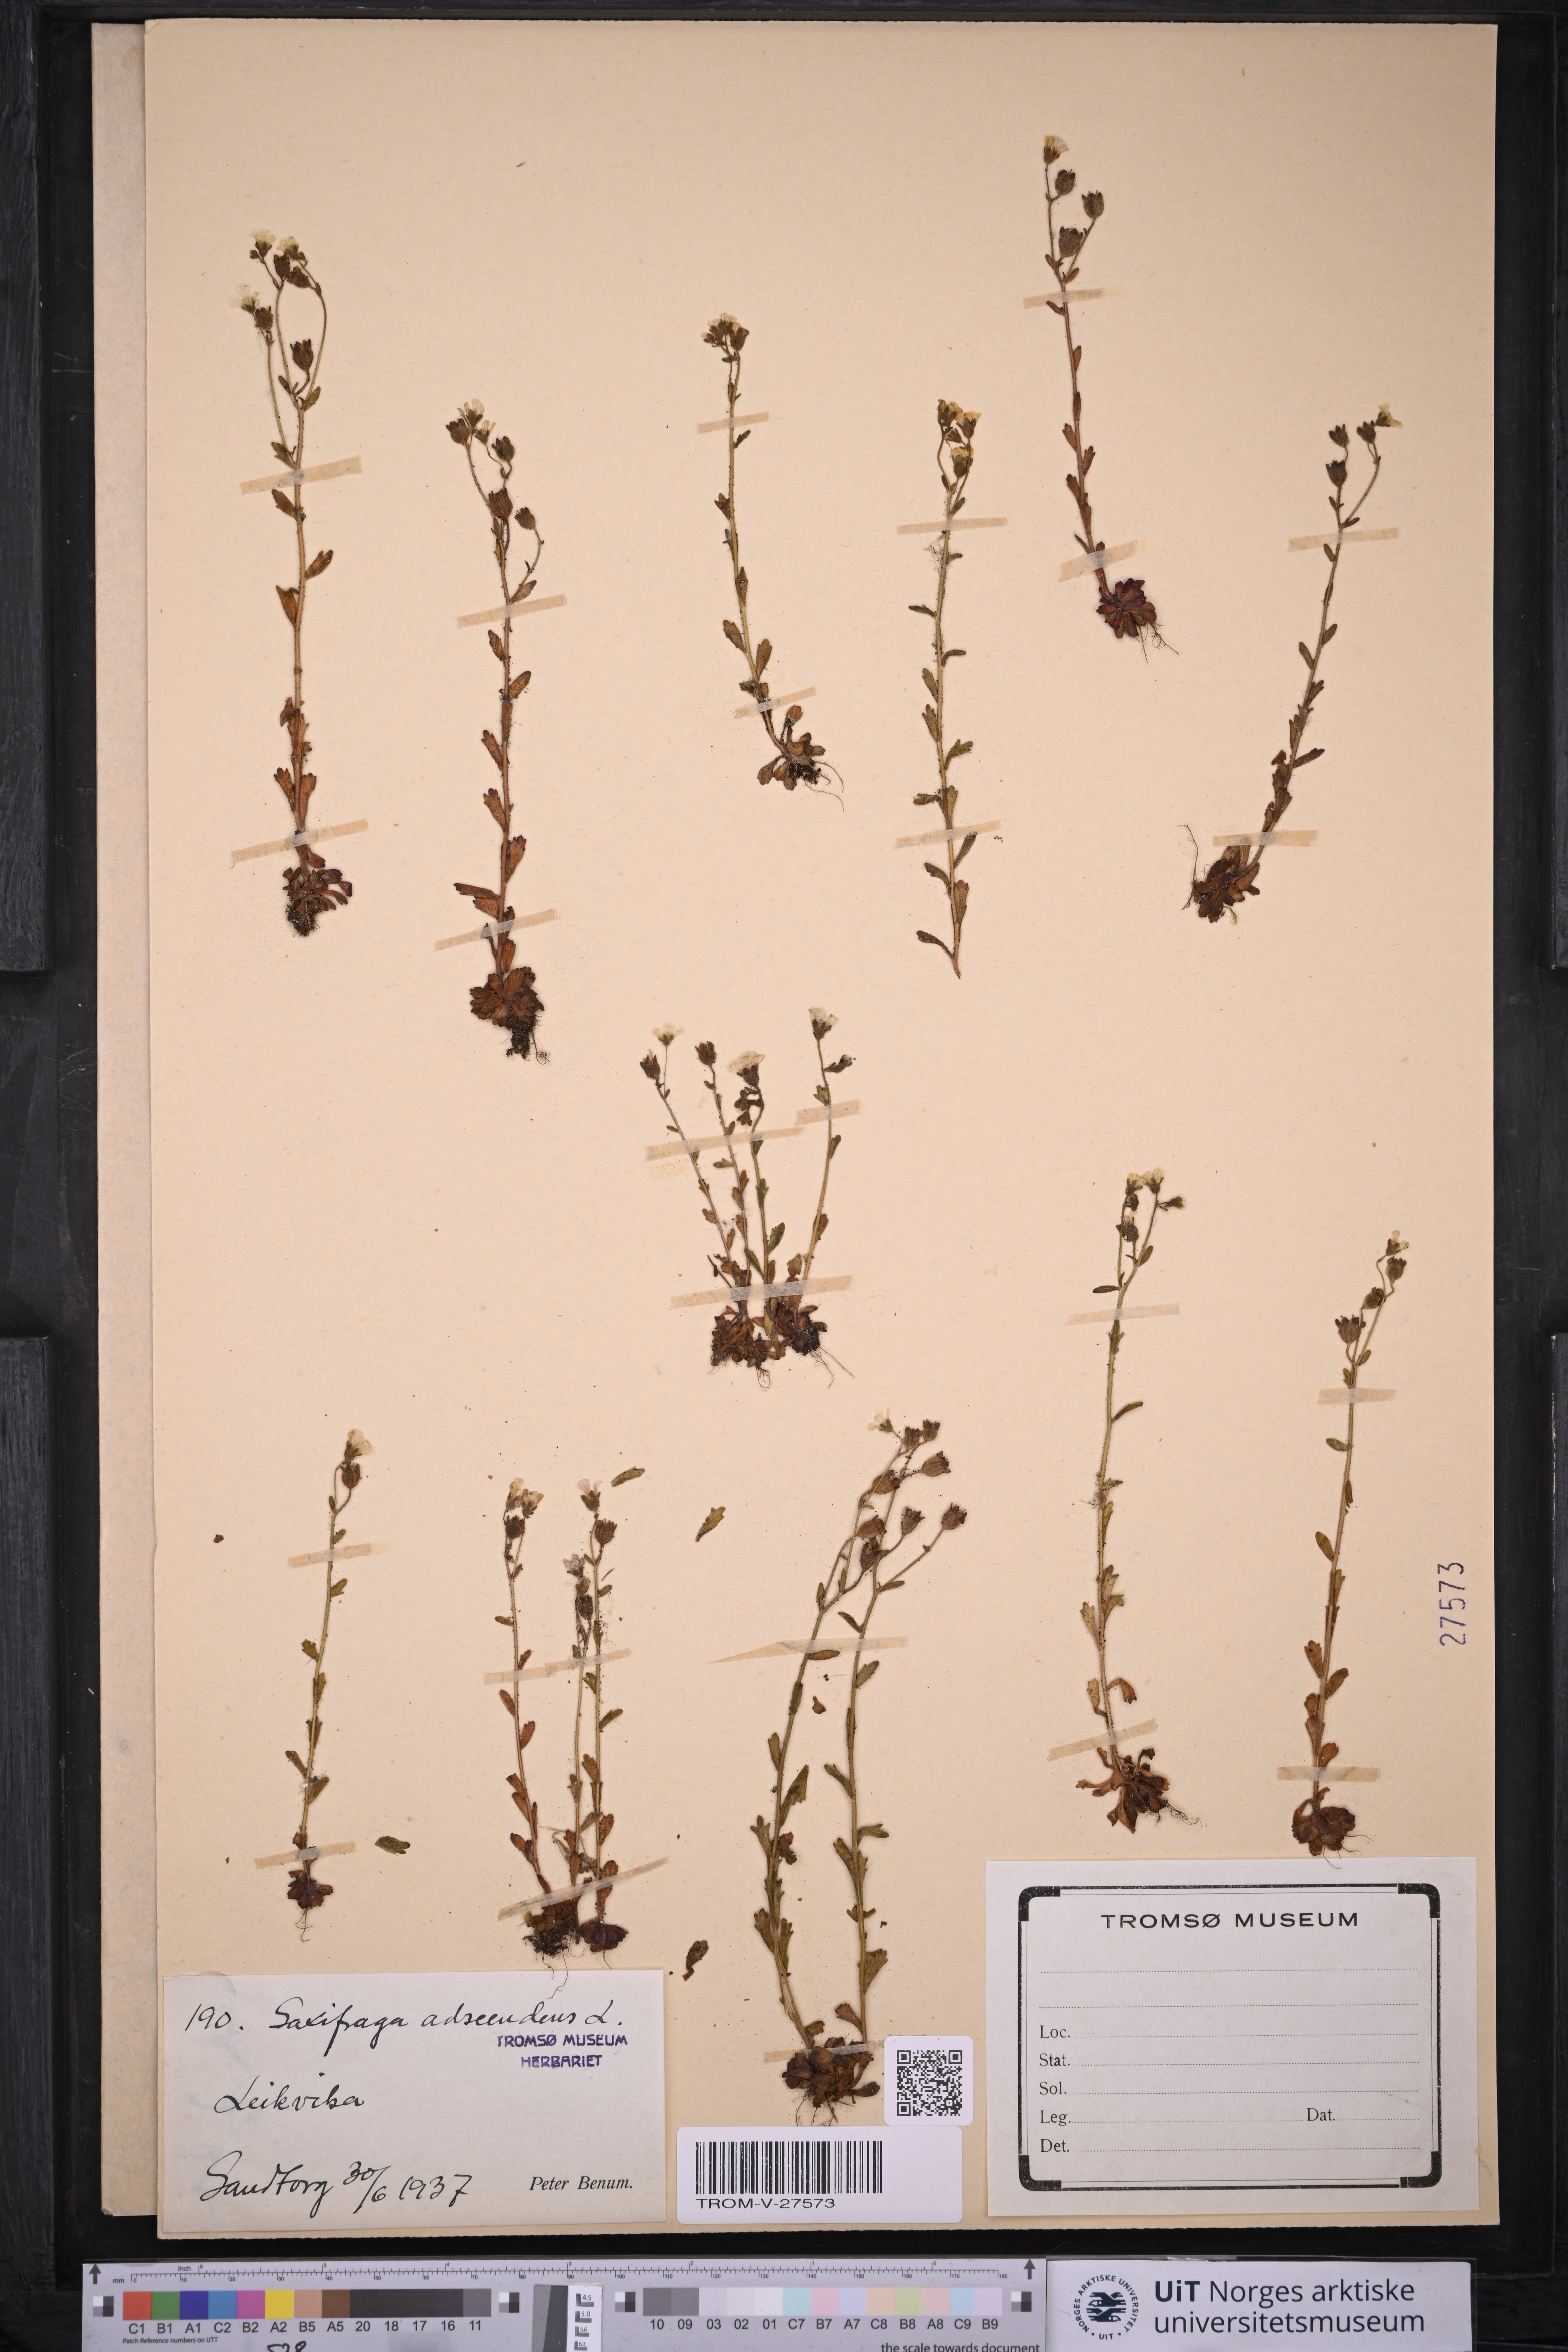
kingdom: Plantae
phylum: Tracheophyta
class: Magnoliopsida
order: Saxifragales
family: Saxifragaceae
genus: Saxifraga
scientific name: Saxifraga adscendens
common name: Ascending saxifrage
